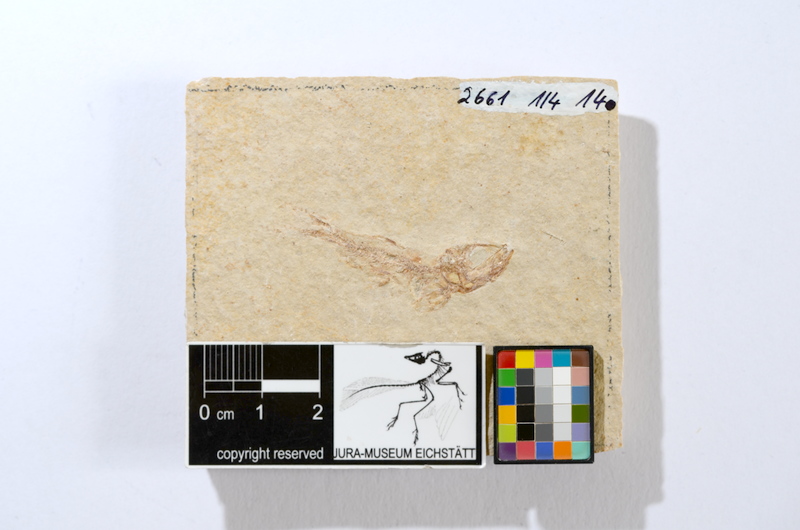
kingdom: Animalia
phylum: Chordata
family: Ascalaboidae
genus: Tharsis
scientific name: Tharsis dubius
